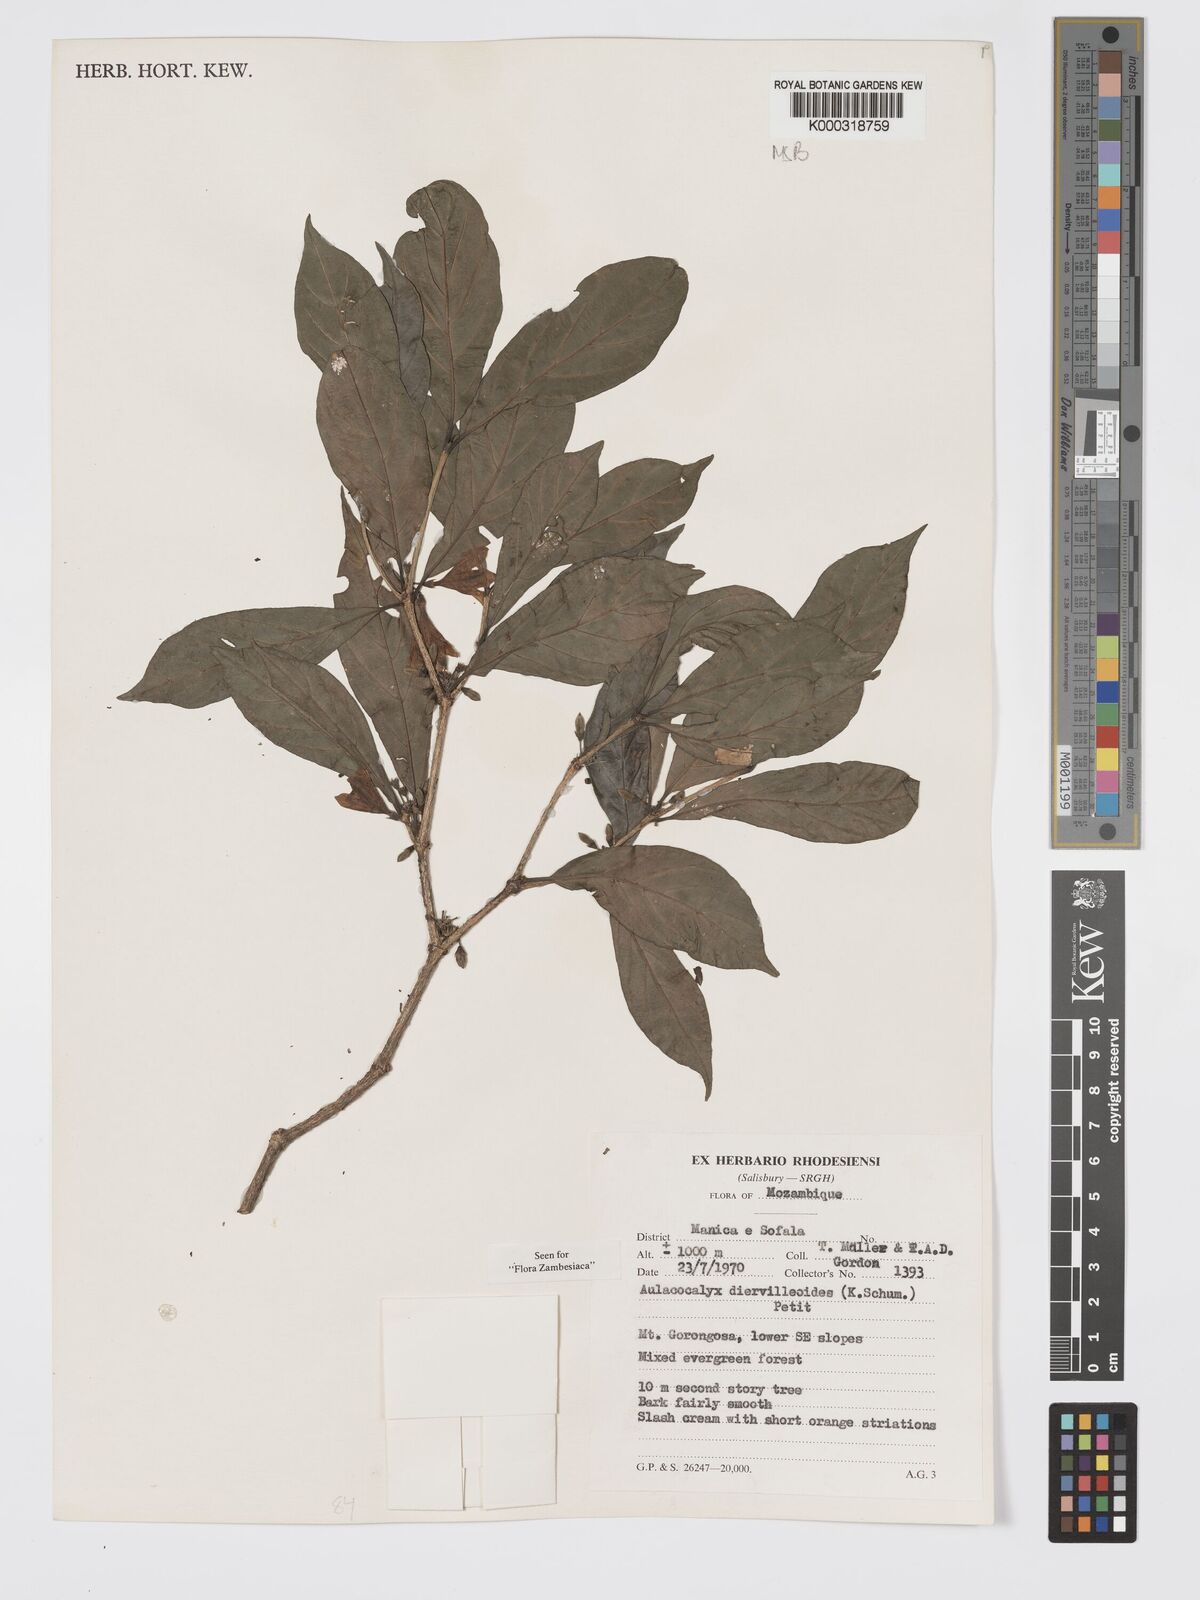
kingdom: Plantae
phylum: Tracheophyta
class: Magnoliopsida
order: Gentianales
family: Rubiaceae
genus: Heinsenia
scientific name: Heinsenia diervilleoides
